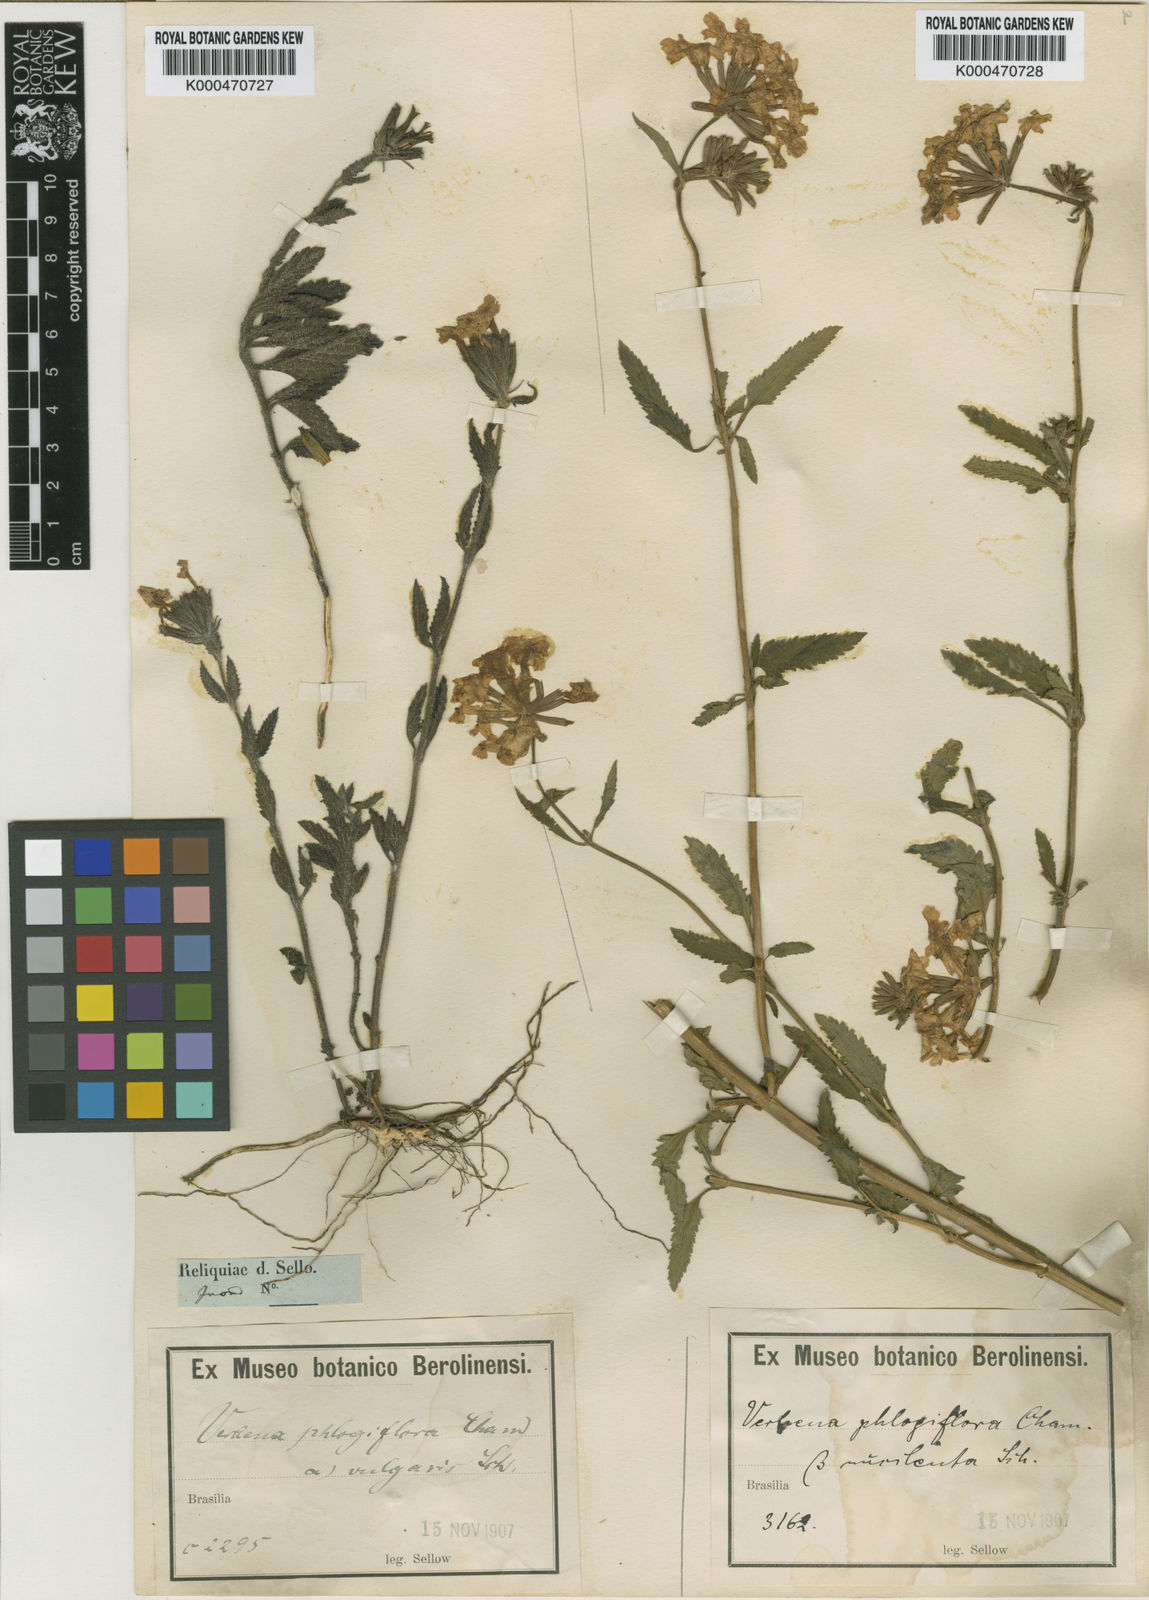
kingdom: Plantae
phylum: Tracheophyta
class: Magnoliopsida
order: Lamiales
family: Verbenaceae
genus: Verbena
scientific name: Verbena phlogiflora
